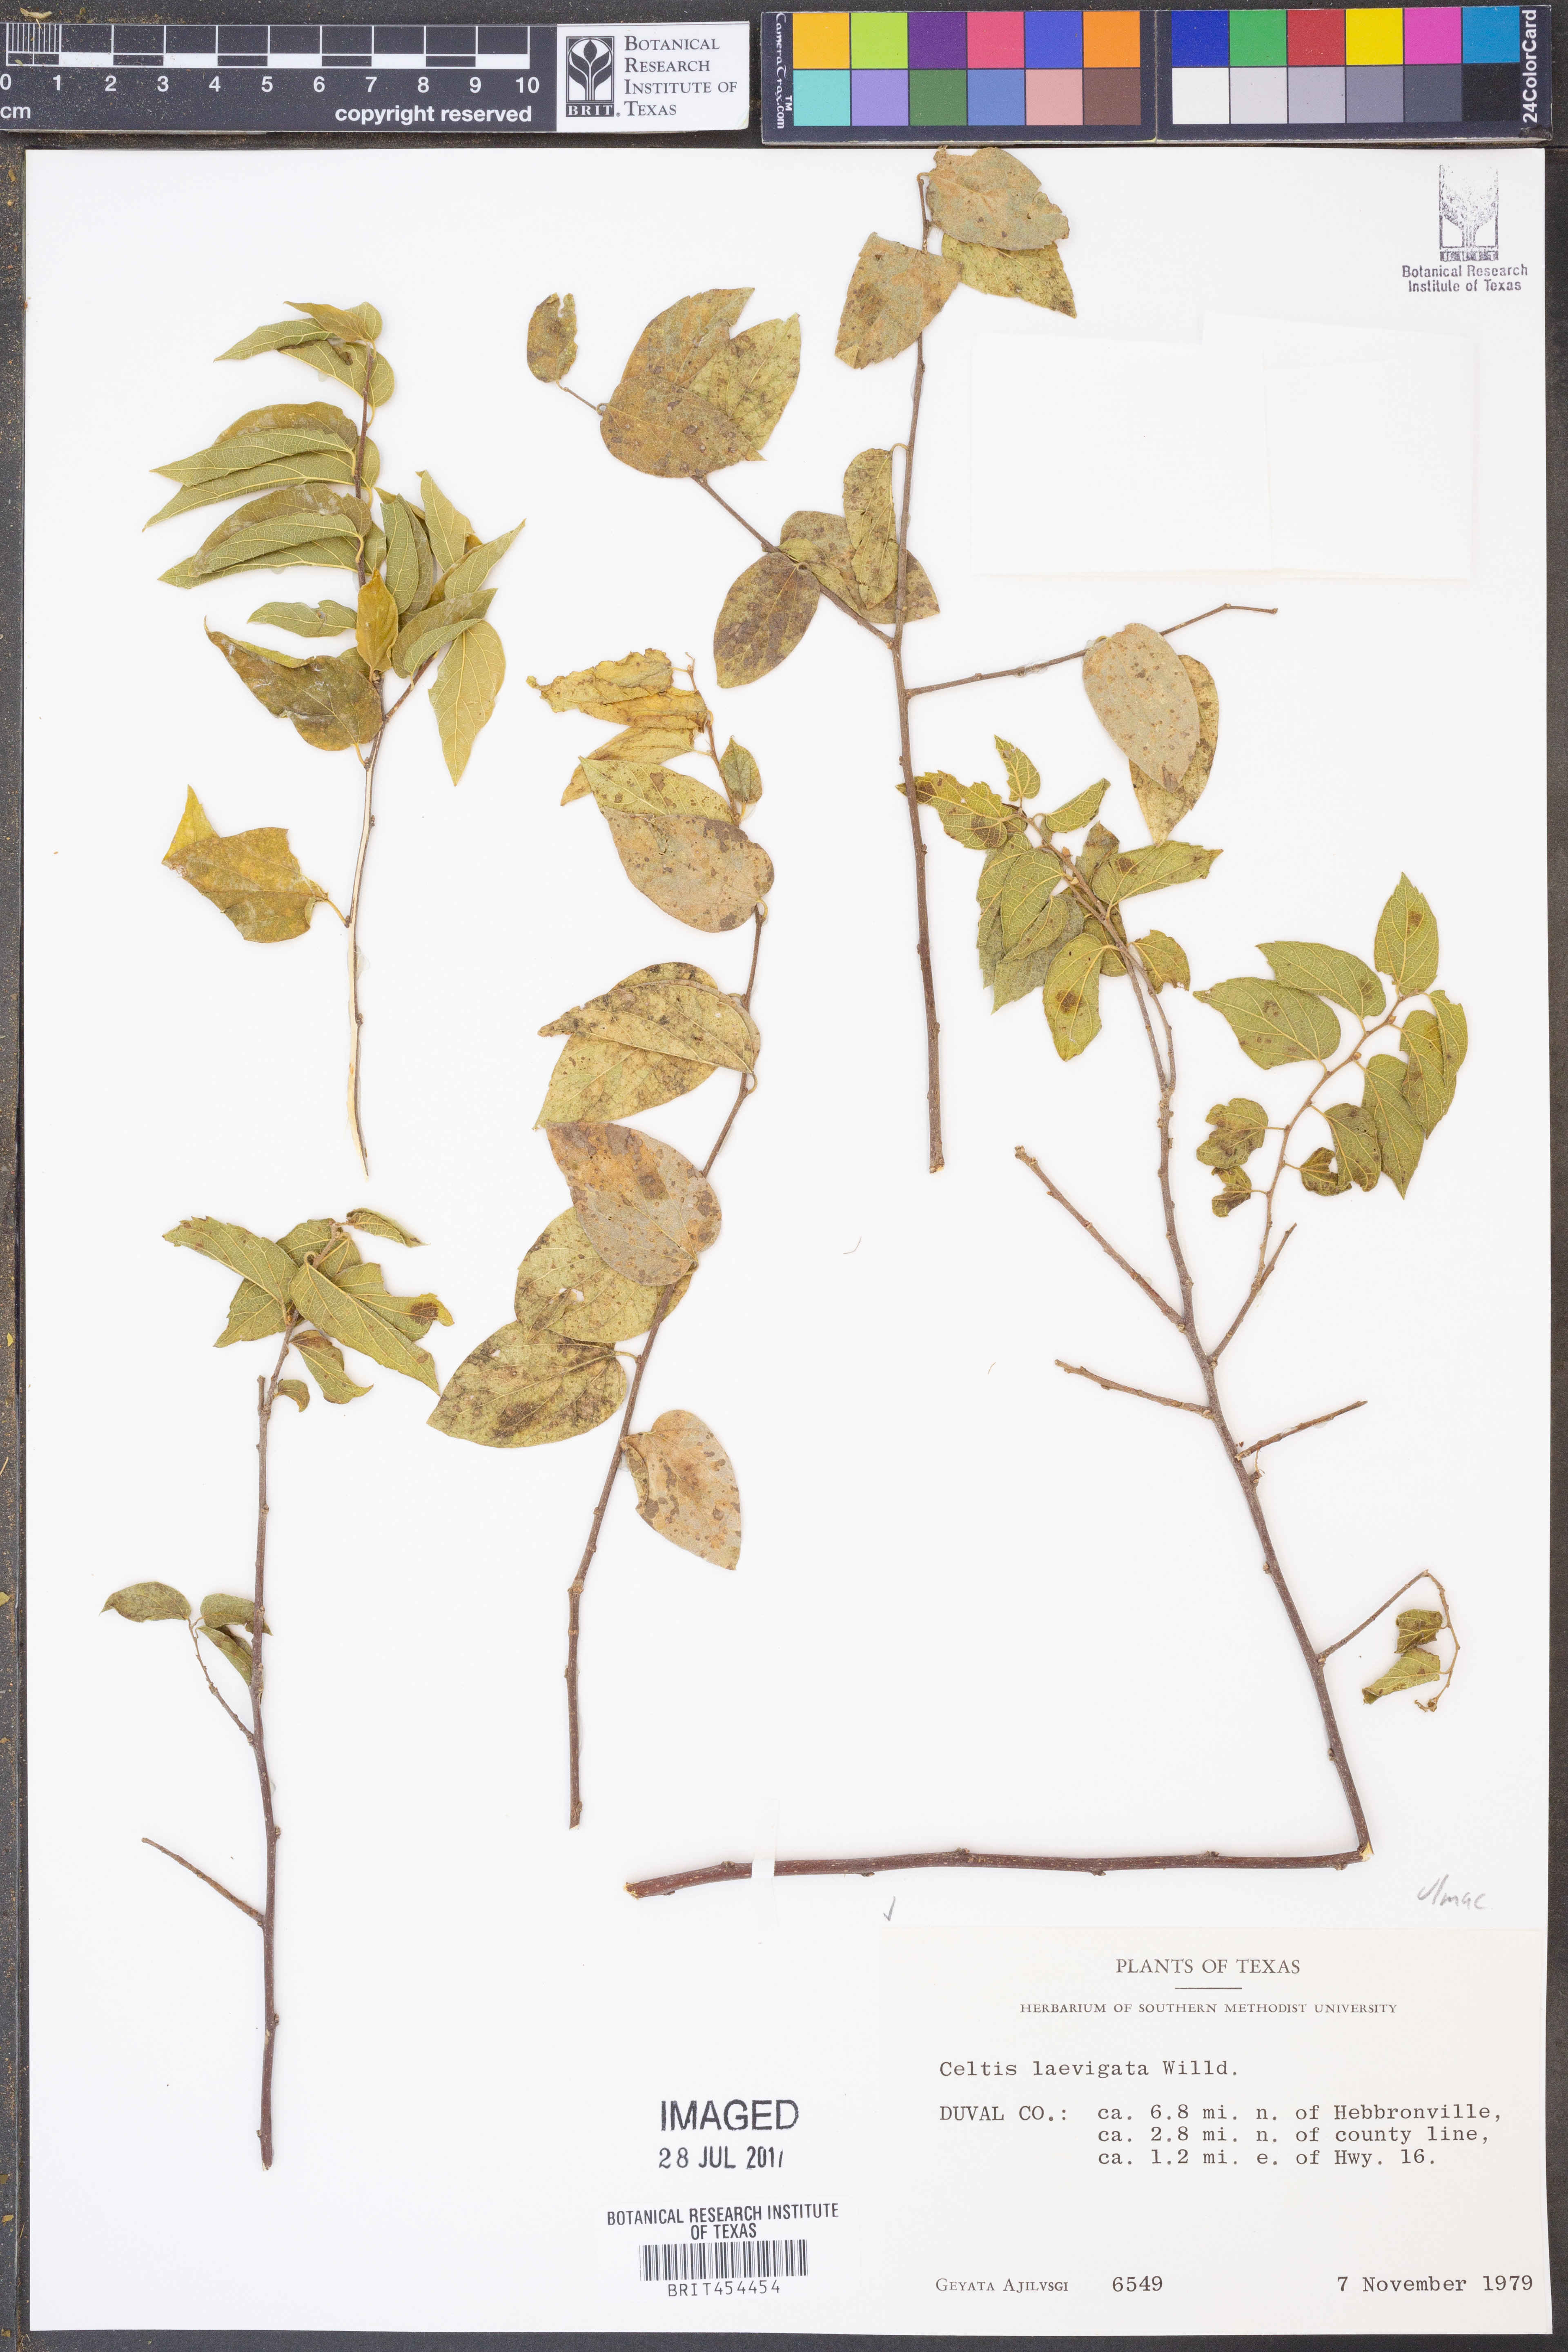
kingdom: Plantae
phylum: Tracheophyta
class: Magnoliopsida
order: Rosales
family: Cannabaceae
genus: Celtis
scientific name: Celtis laevigata
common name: Sugarberry
